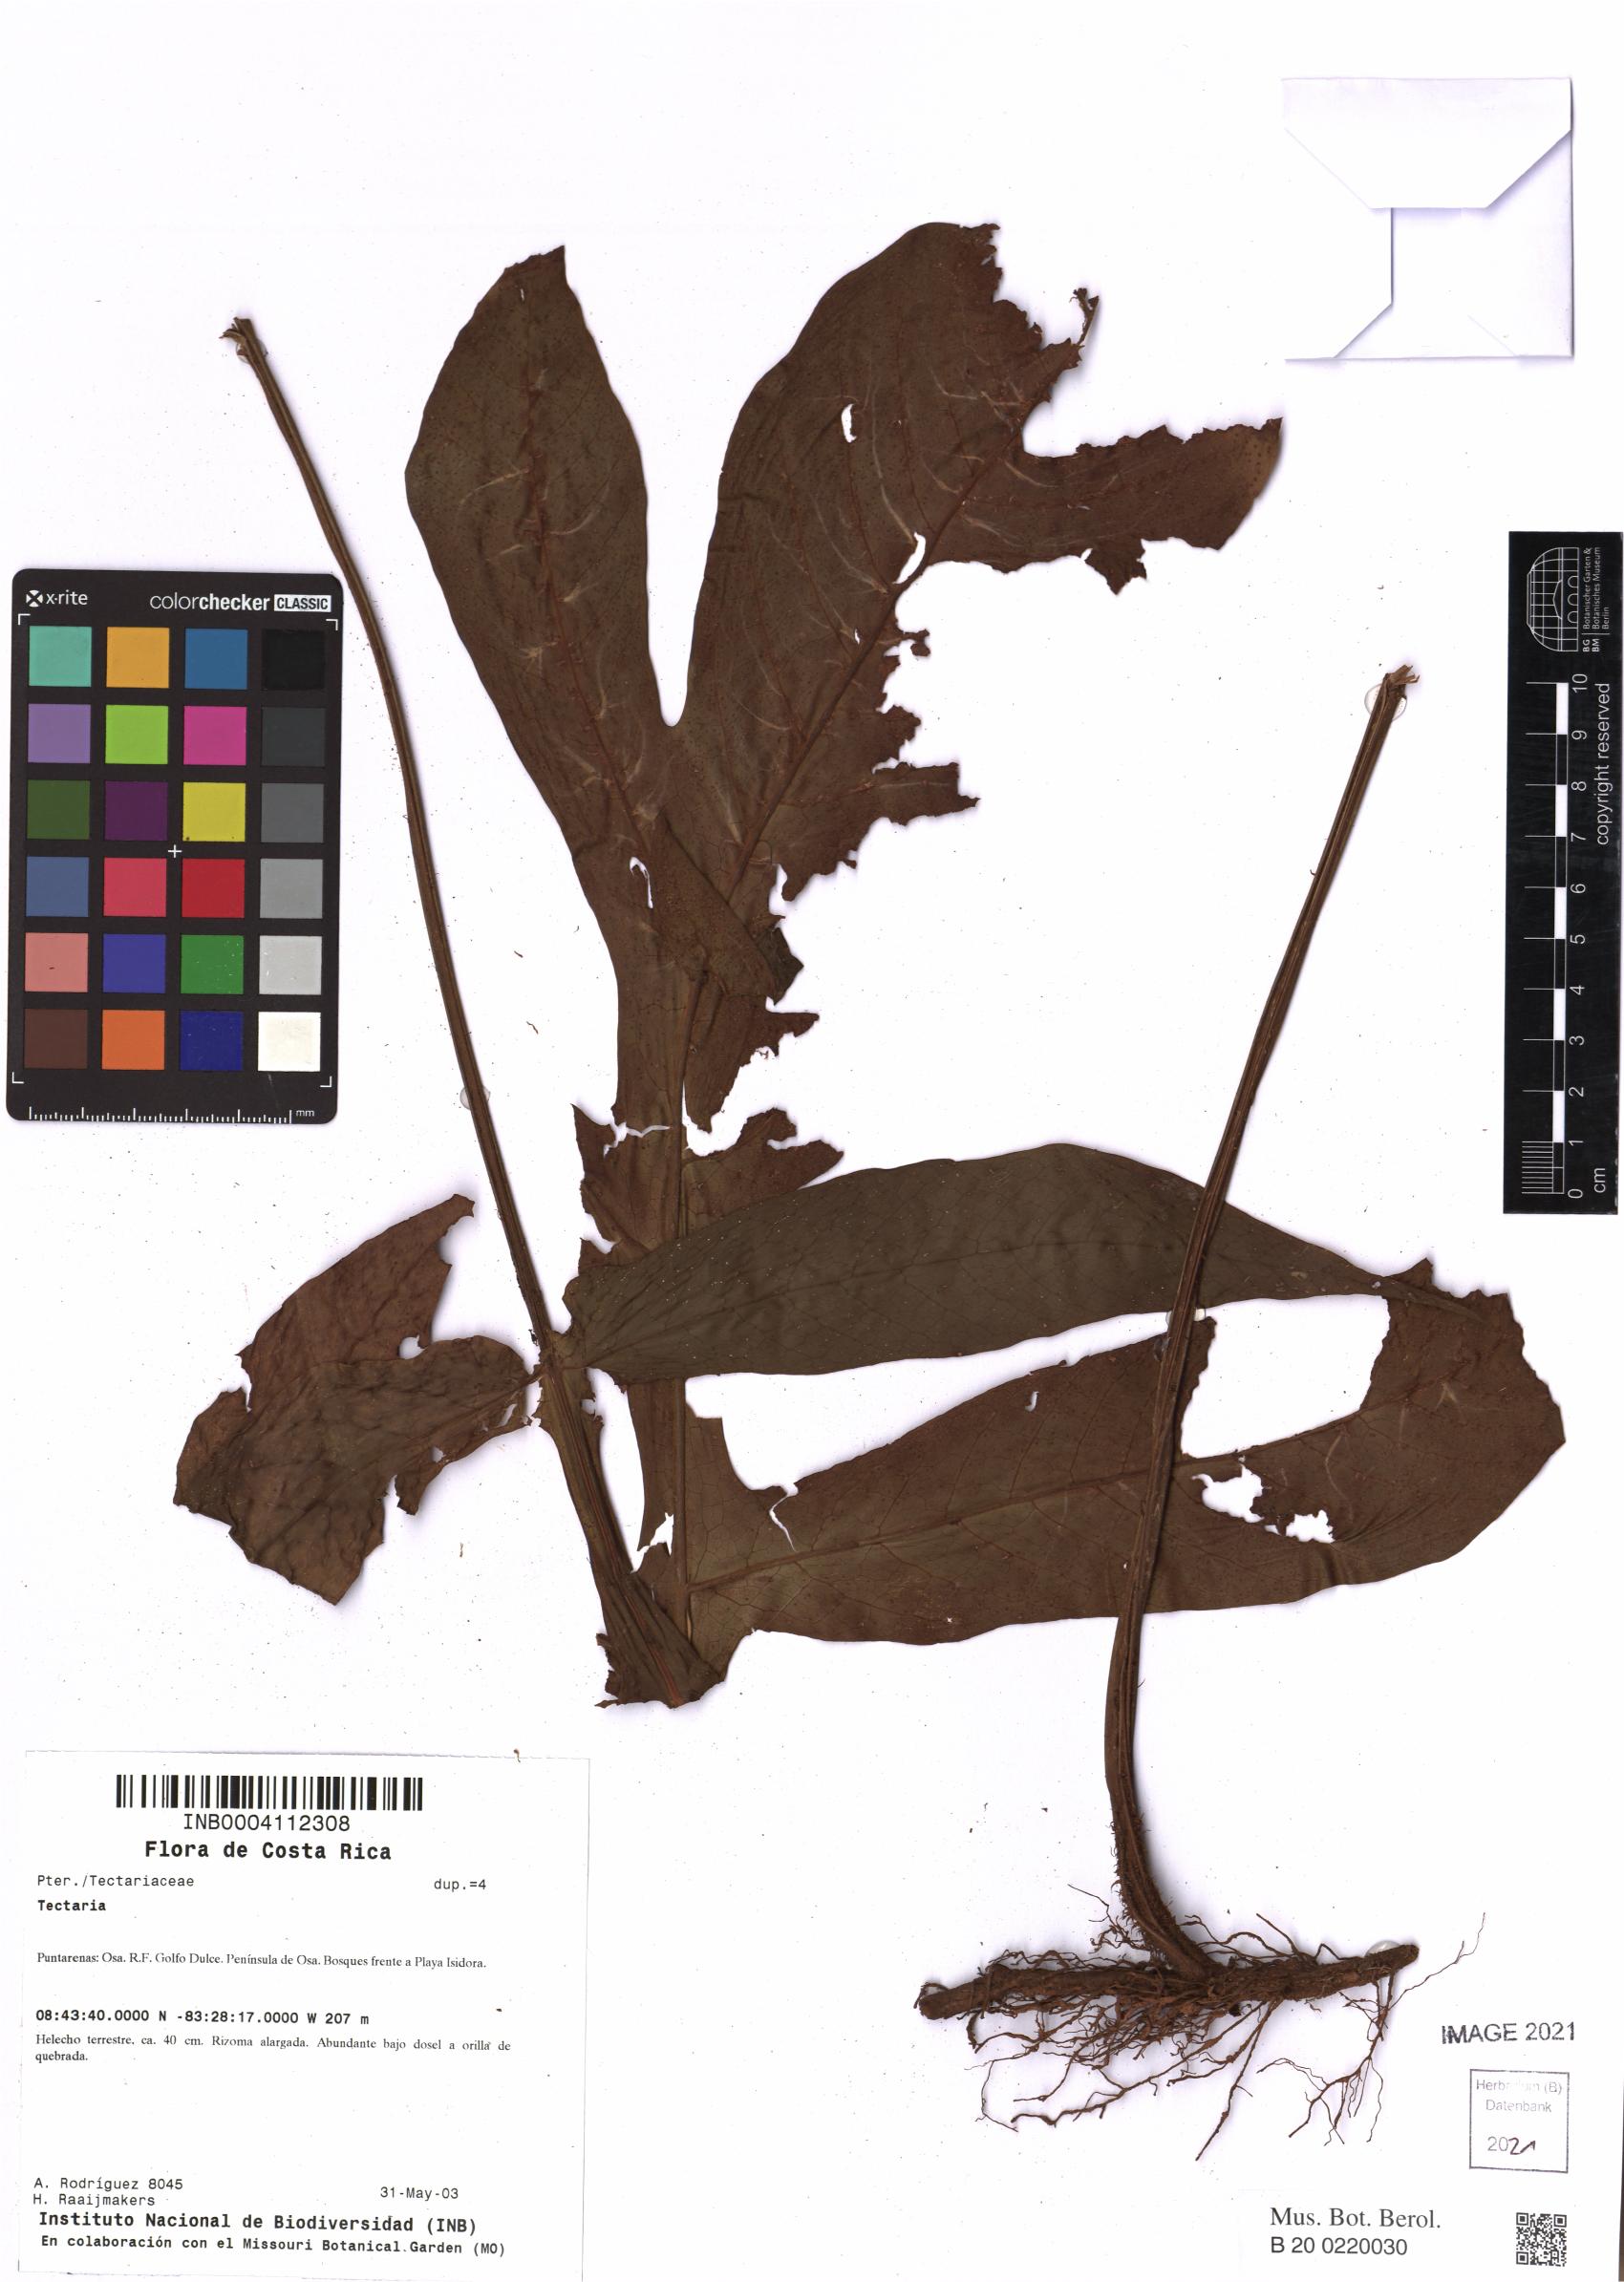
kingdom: Plantae
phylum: Tracheophyta
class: Polypodiopsida
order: Polypodiales
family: Tectariaceae
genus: Hypoderris
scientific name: Hypoderris nicotianifolia
